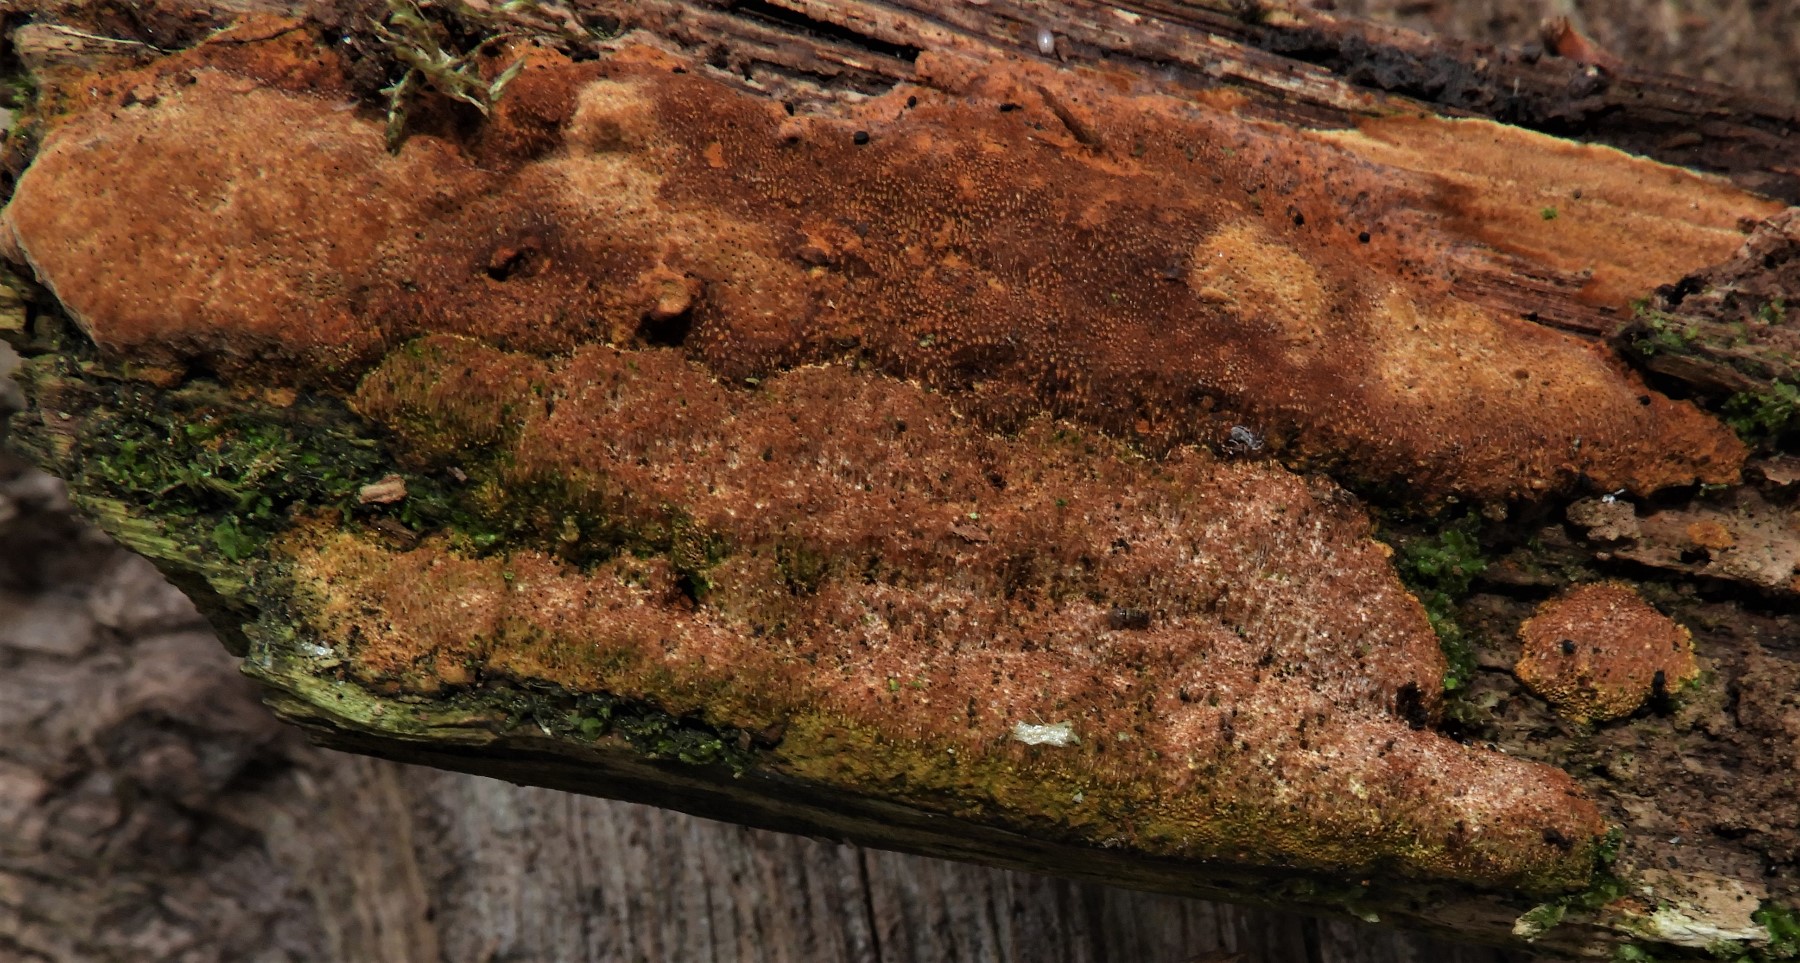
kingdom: Fungi
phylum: Basidiomycota
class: Agaricomycetes
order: Hymenochaetales
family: Hymenochaetaceae
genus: Fuscoporia
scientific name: Fuscoporia ferrea
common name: skorpe-ildporesvamp
